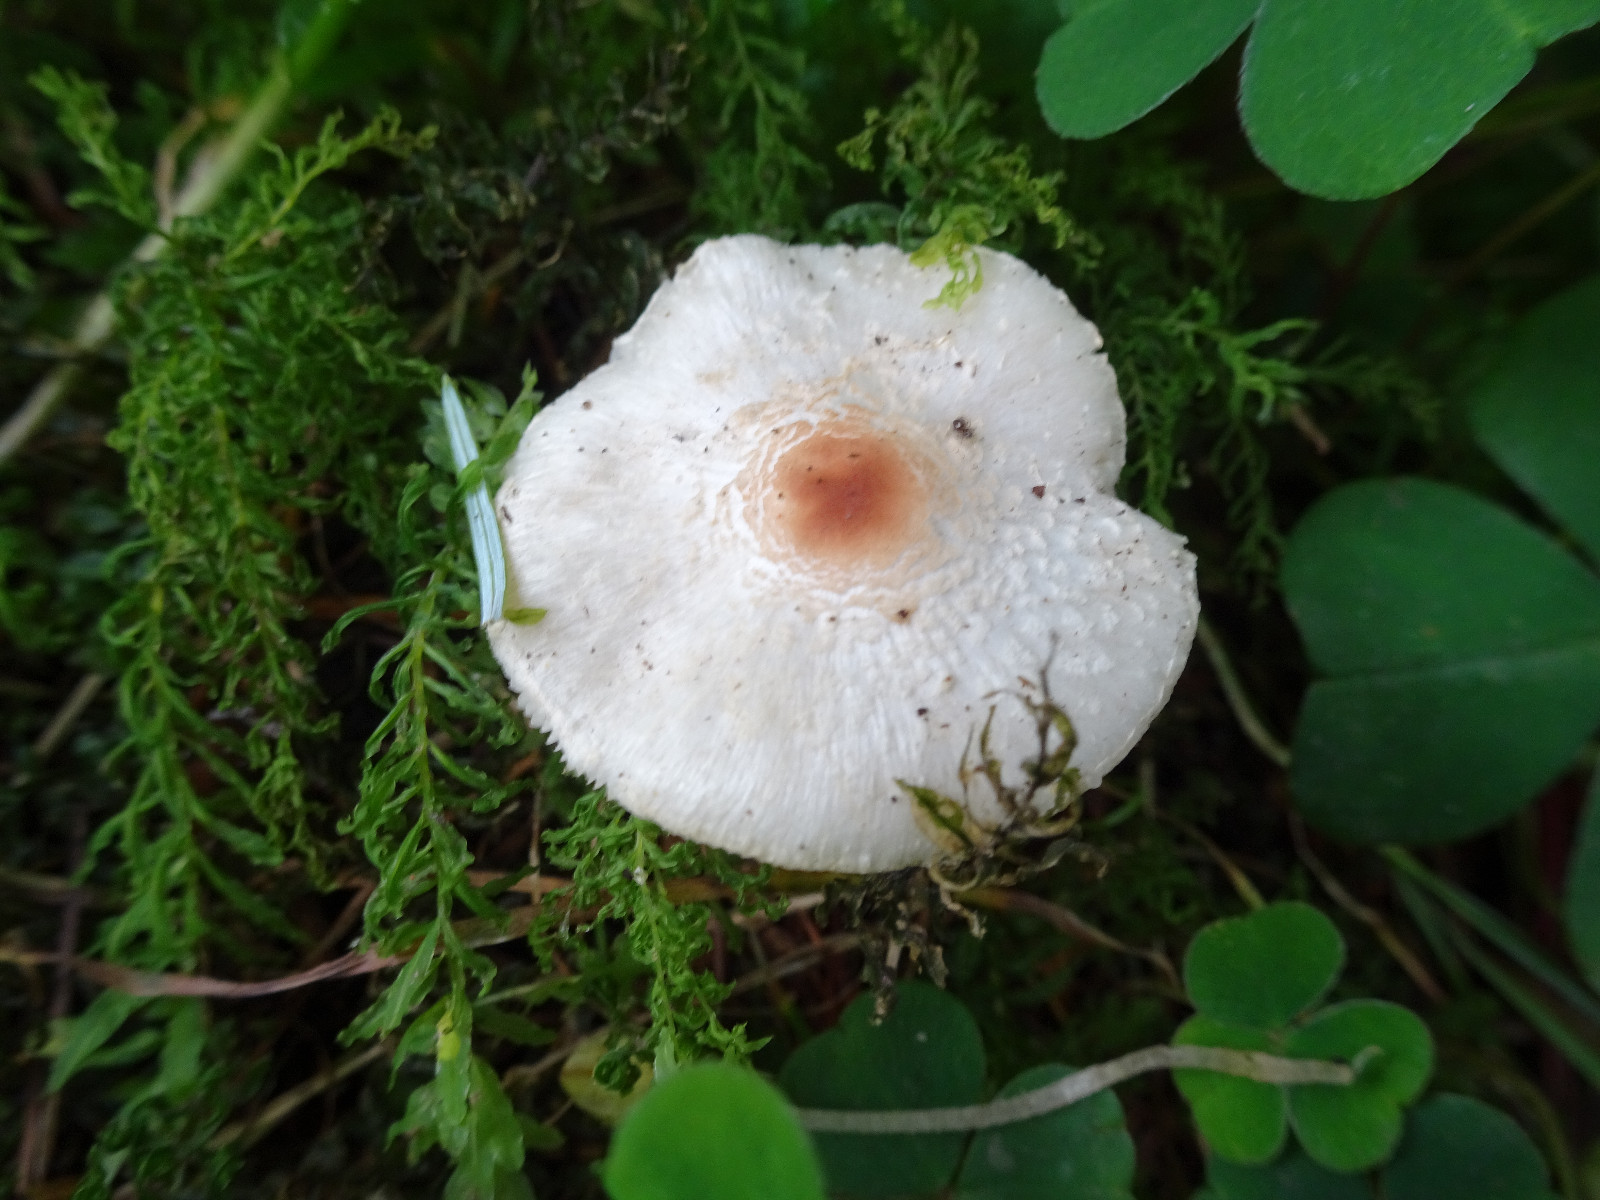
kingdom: Fungi
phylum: Basidiomycota
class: Agaricomycetes
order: Agaricales
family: Agaricaceae
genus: Lepiota
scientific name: Lepiota cristata
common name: stinkende parasolhat
